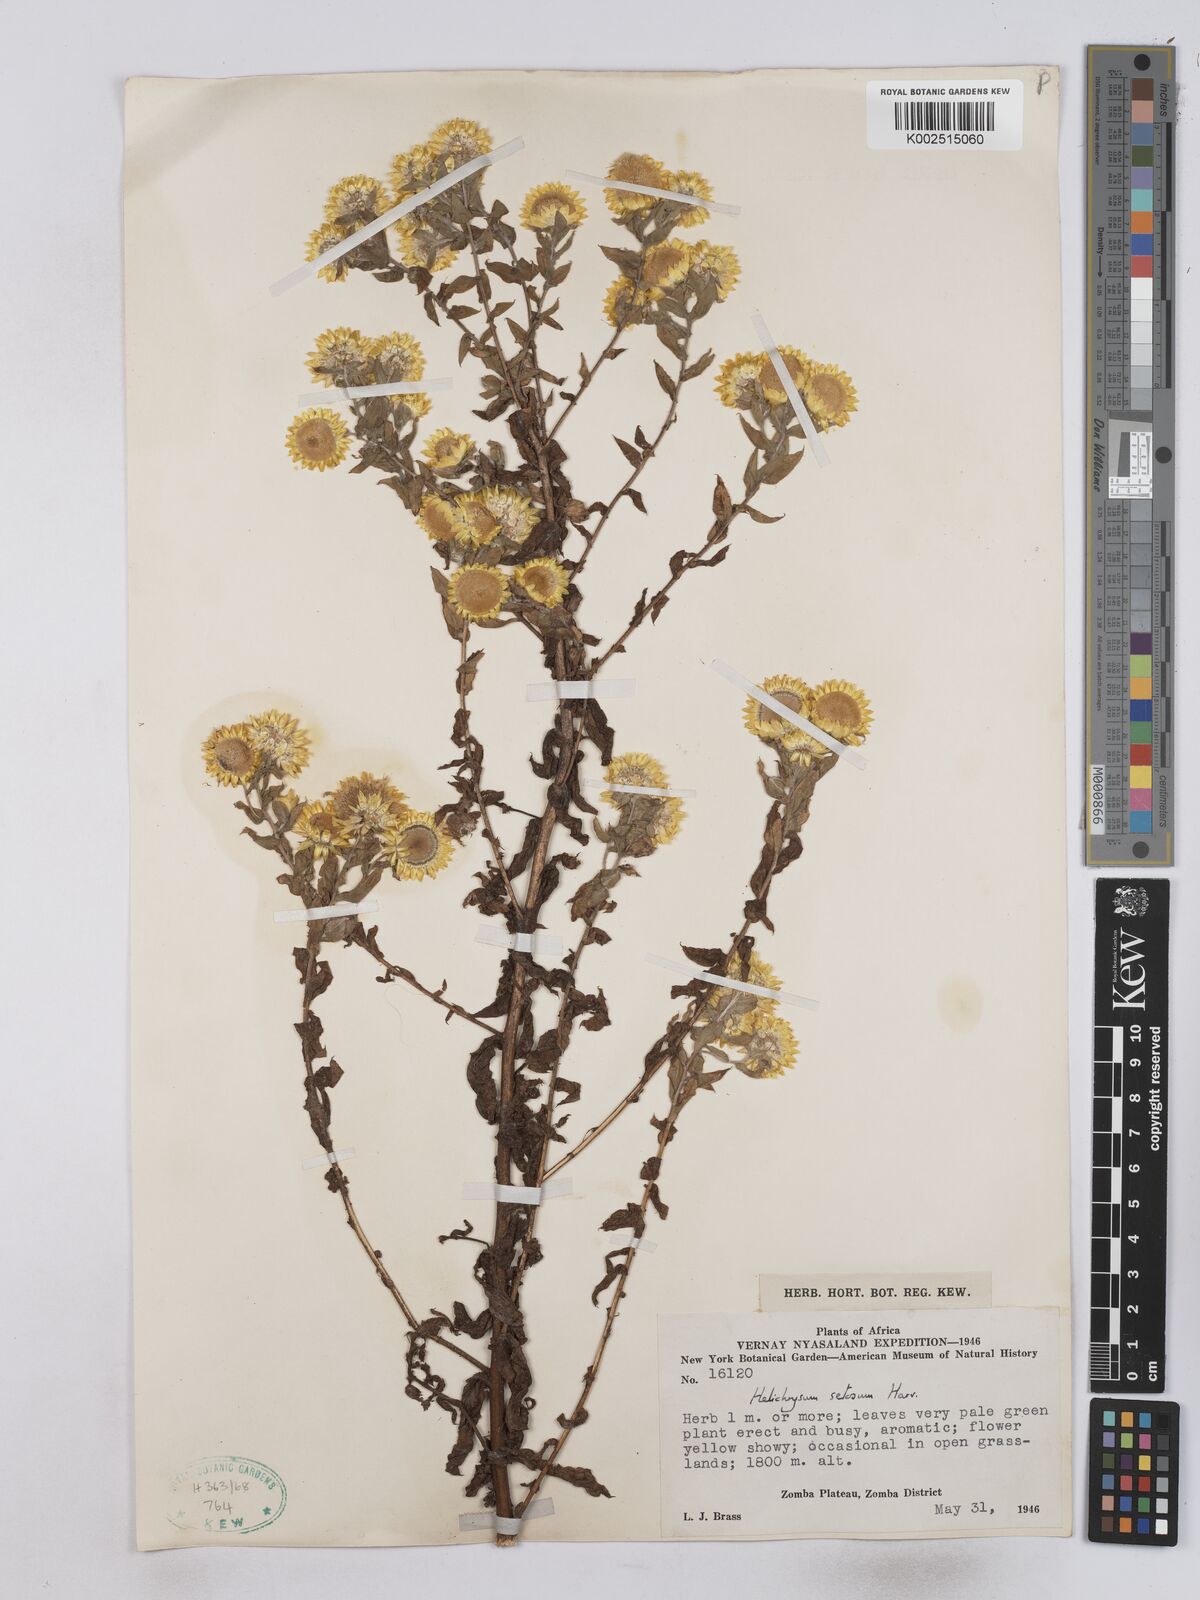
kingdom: Plantae
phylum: Tracheophyta
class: Magnoliopsida
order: Asterales
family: Asteraceae
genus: Helichrysum
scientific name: Helichrysum setosum
